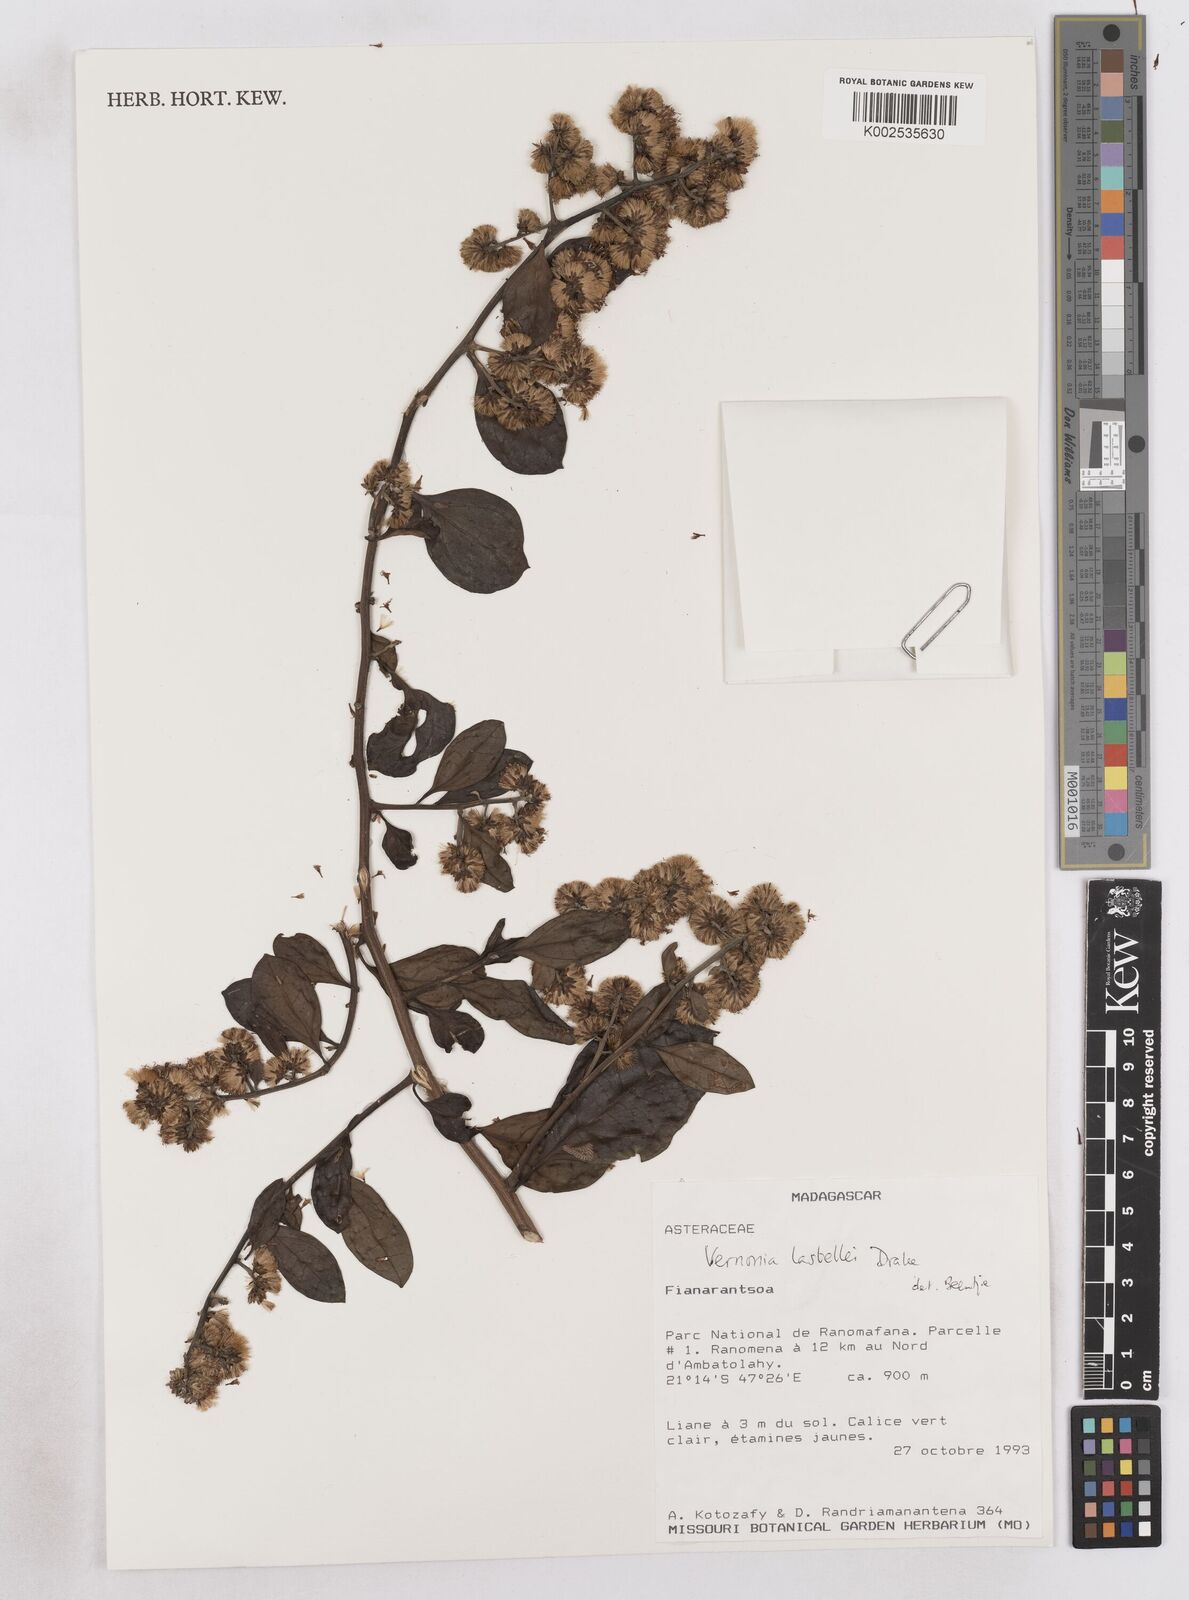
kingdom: Plantae
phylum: Tracheophyta
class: Magnoliopsida
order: Asterales
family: Asteraceae
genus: Distephanus
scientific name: Distephanus lastellei
